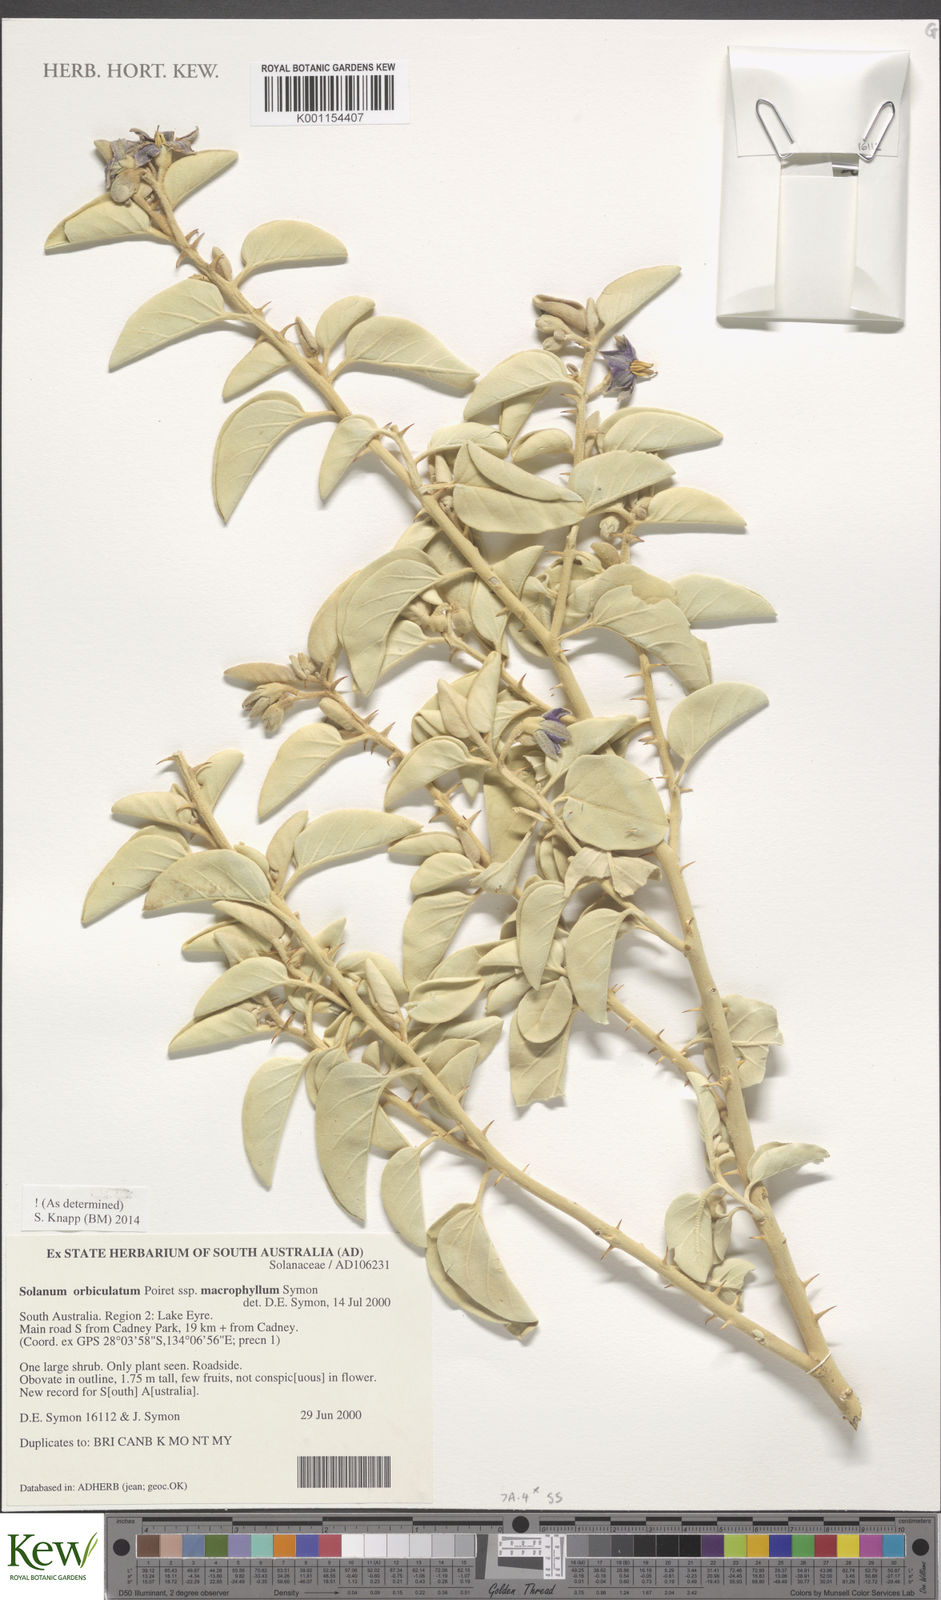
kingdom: Plantae
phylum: Tracheophyta
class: Magnoliopsida
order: Solanales
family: Solanaceae
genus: Solanum
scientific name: Solanum orbiculatum
